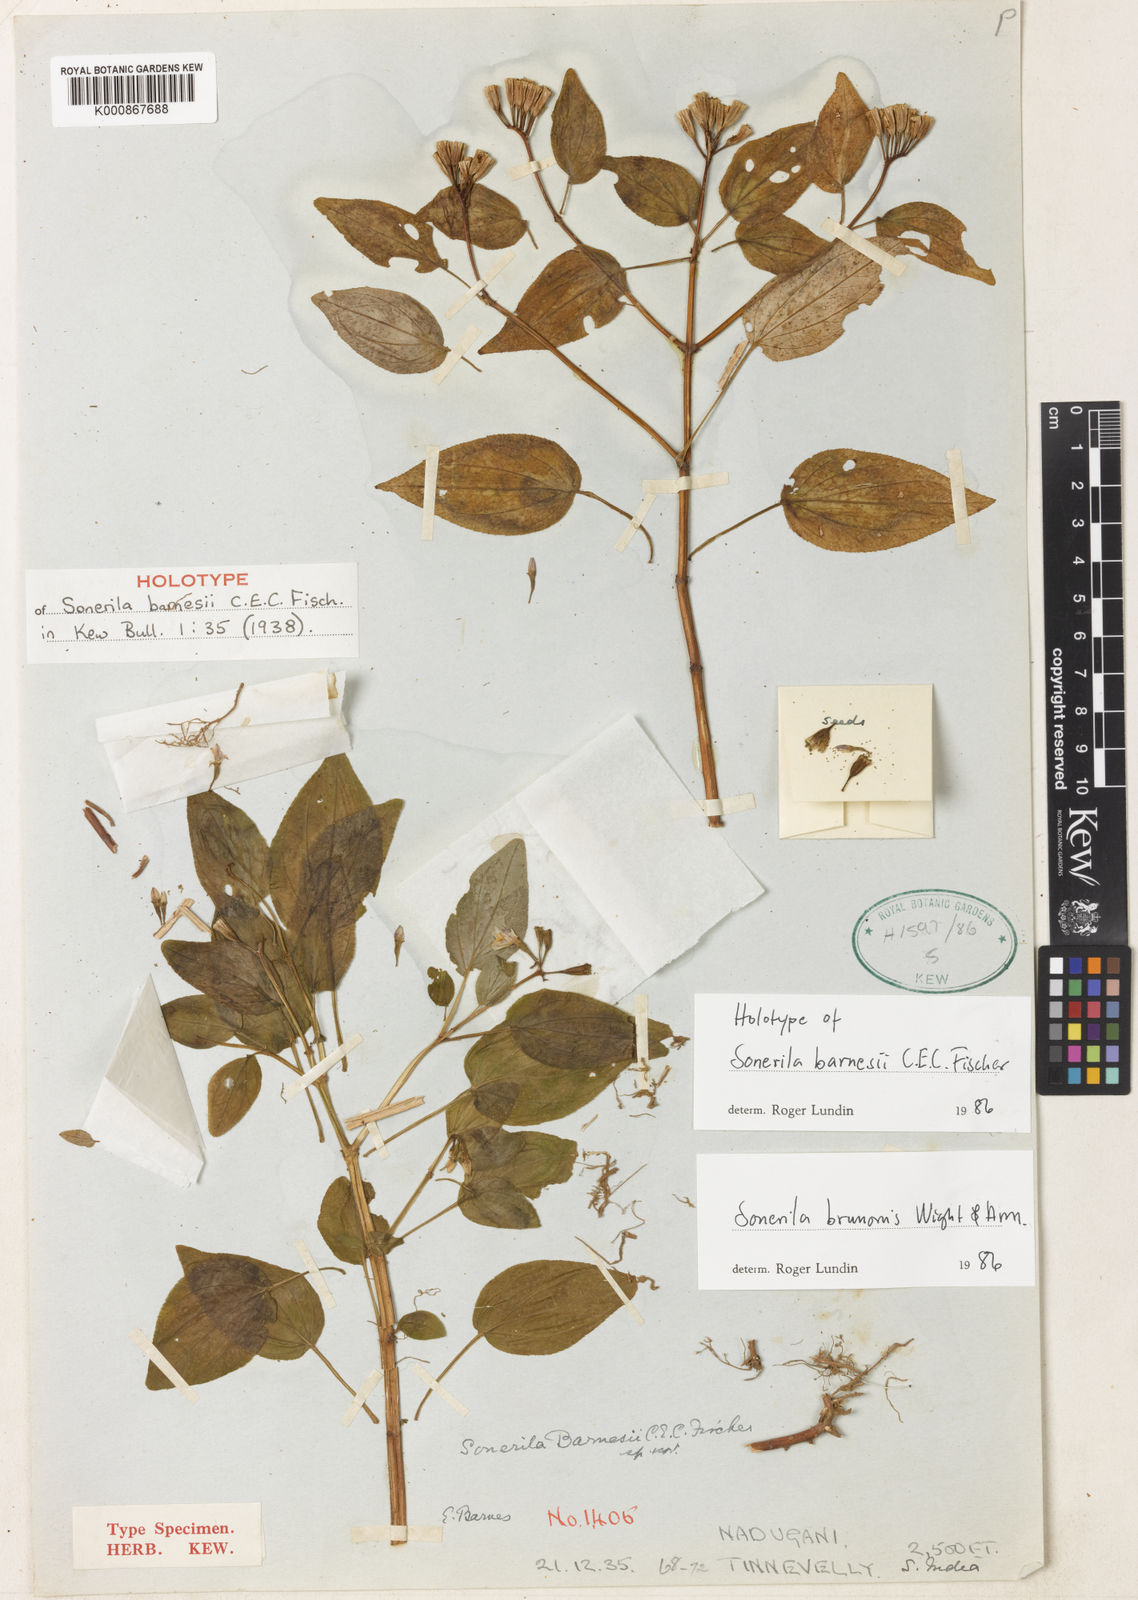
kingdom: Plantae
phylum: Tracheophyta
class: Magnoliopsida
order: Myrtales
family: Melastomataceae
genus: Sonerila
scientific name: Sonerila brunonis
